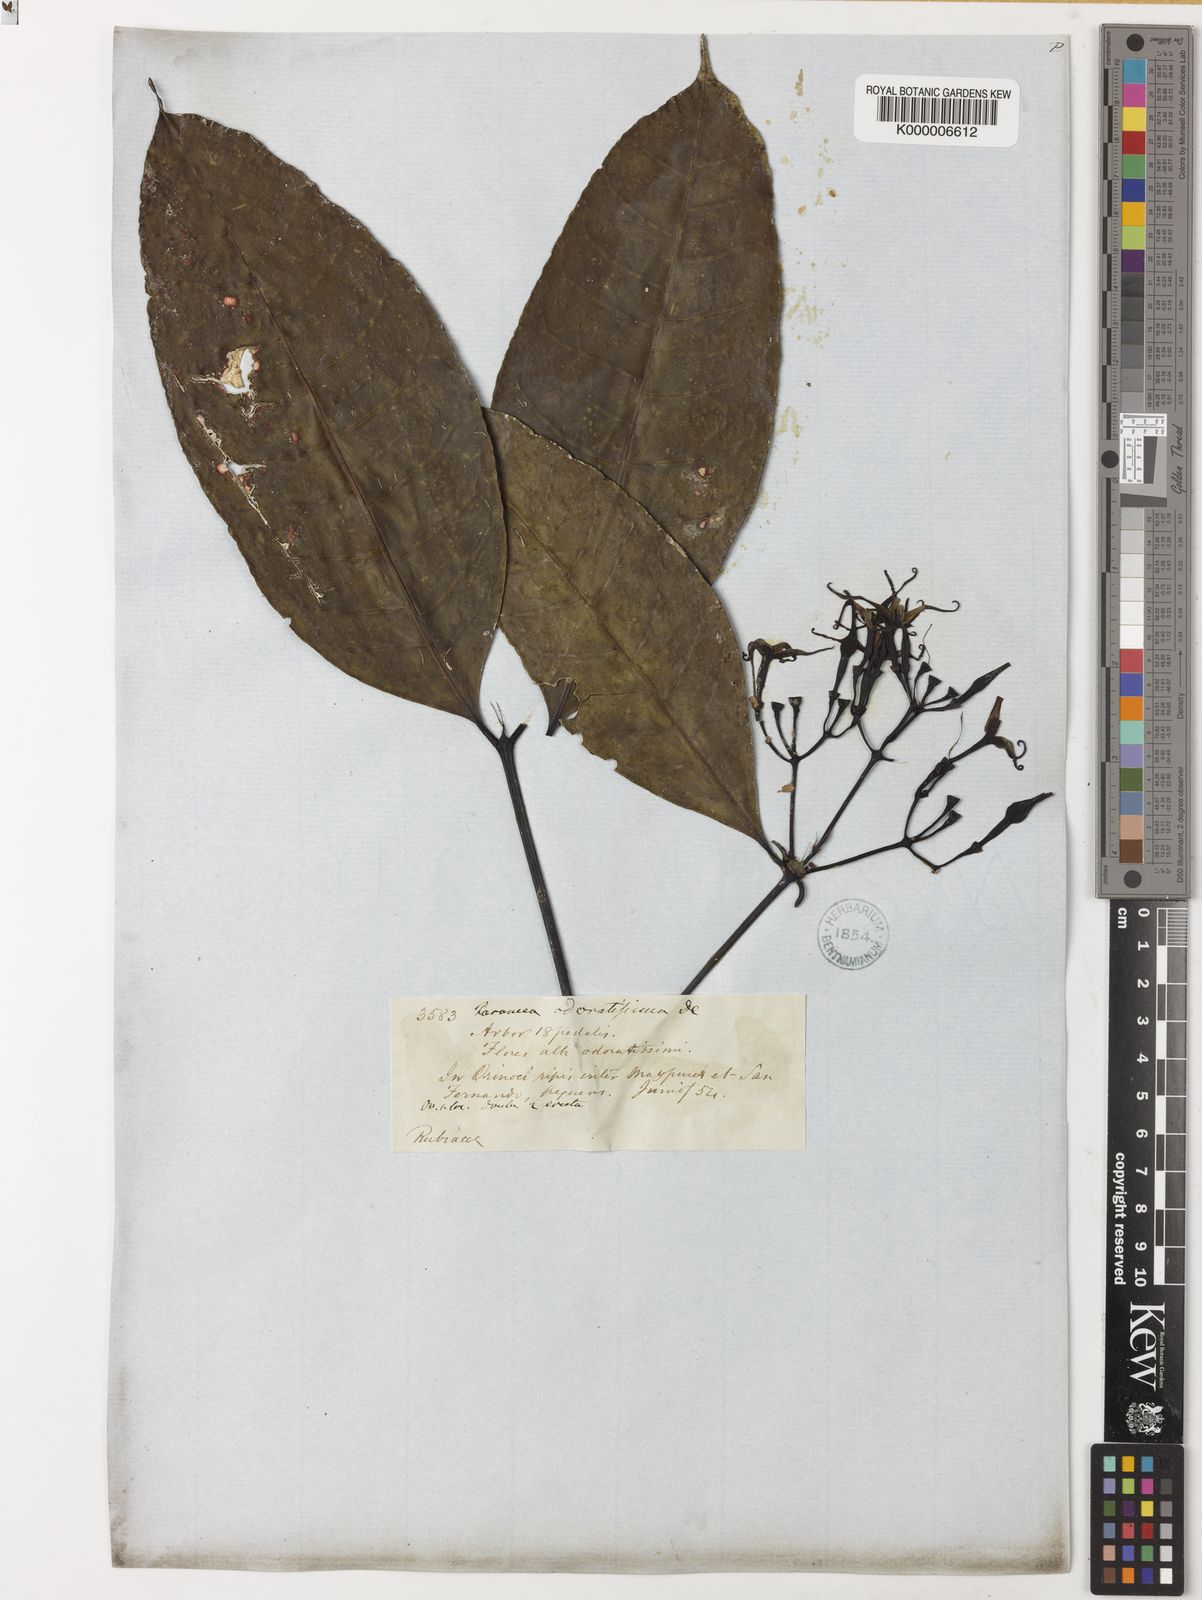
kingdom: Plantae
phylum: Tracheophyta
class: Magnoliopsida
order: Gentianales
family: Rubiaceae
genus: Faramea
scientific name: Faramea occidentalis
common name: False coffee
